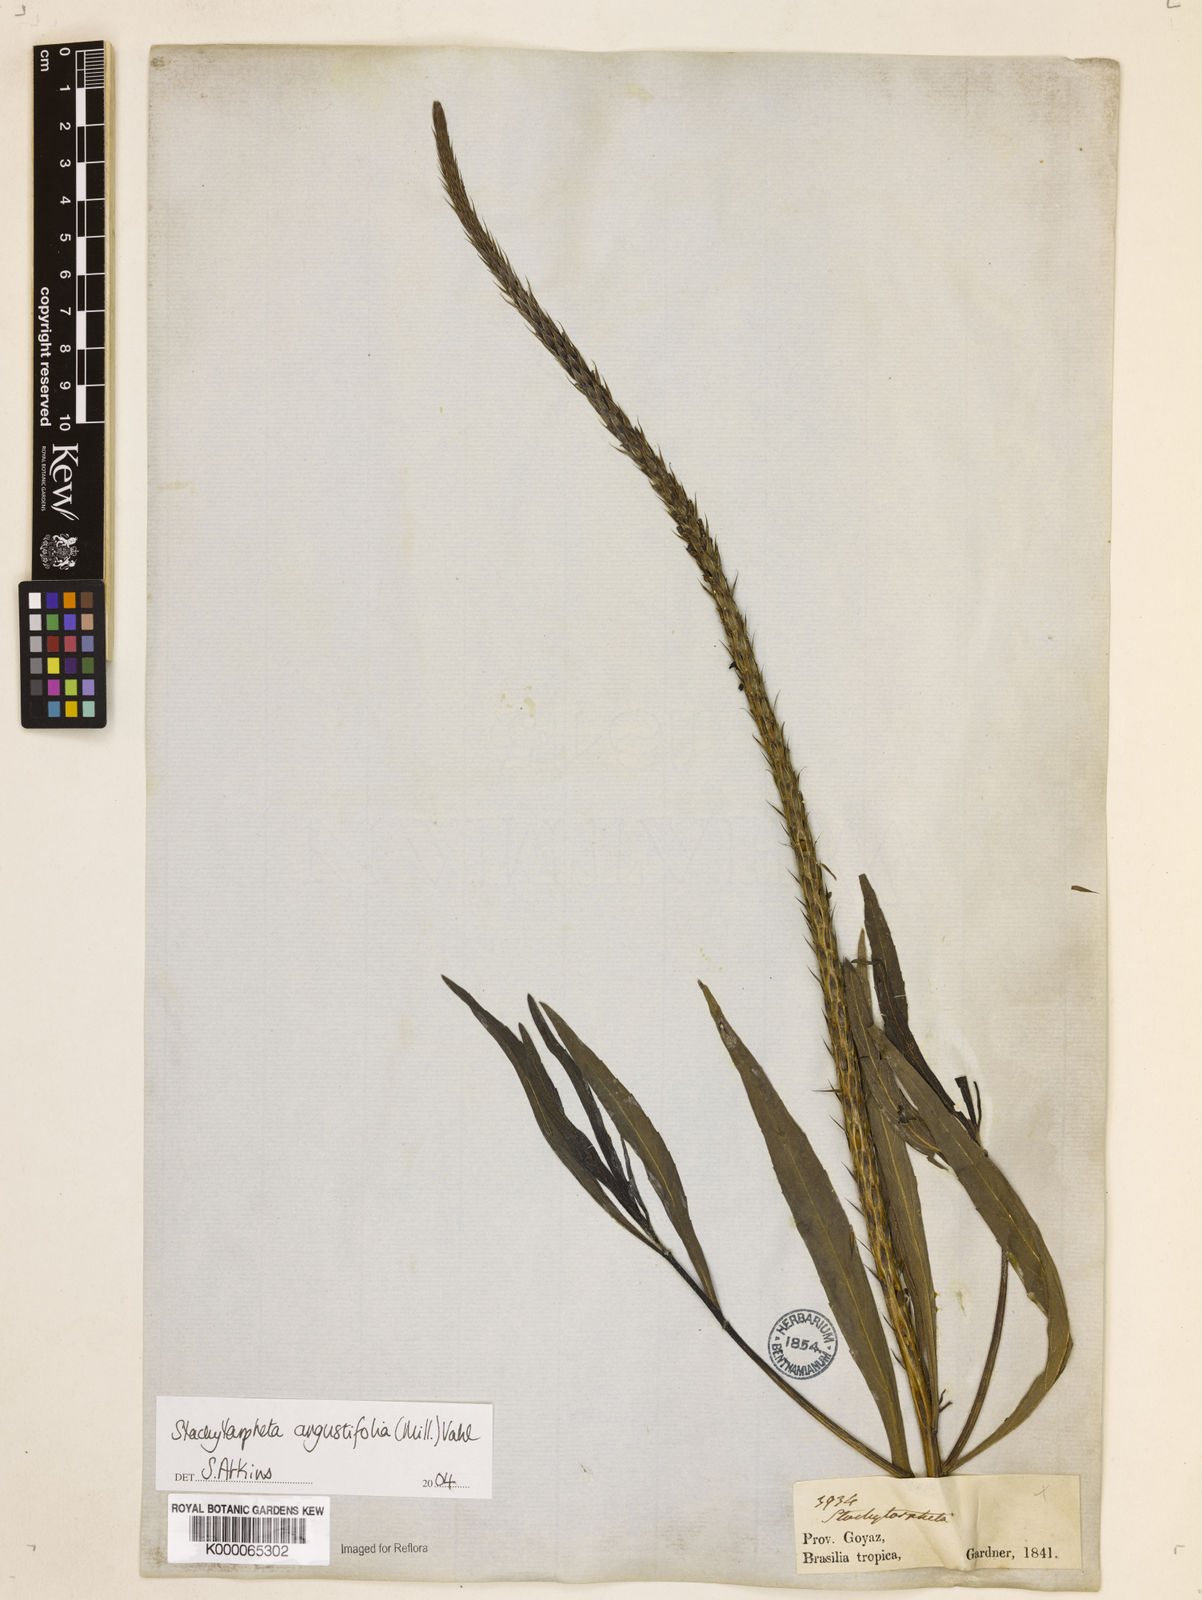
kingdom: Plantae
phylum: Tracheophyta
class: Magnoliopsida
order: Lamiales
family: Verbenaceae
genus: Stachytarpheta
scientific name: Stachytarpheta indica
